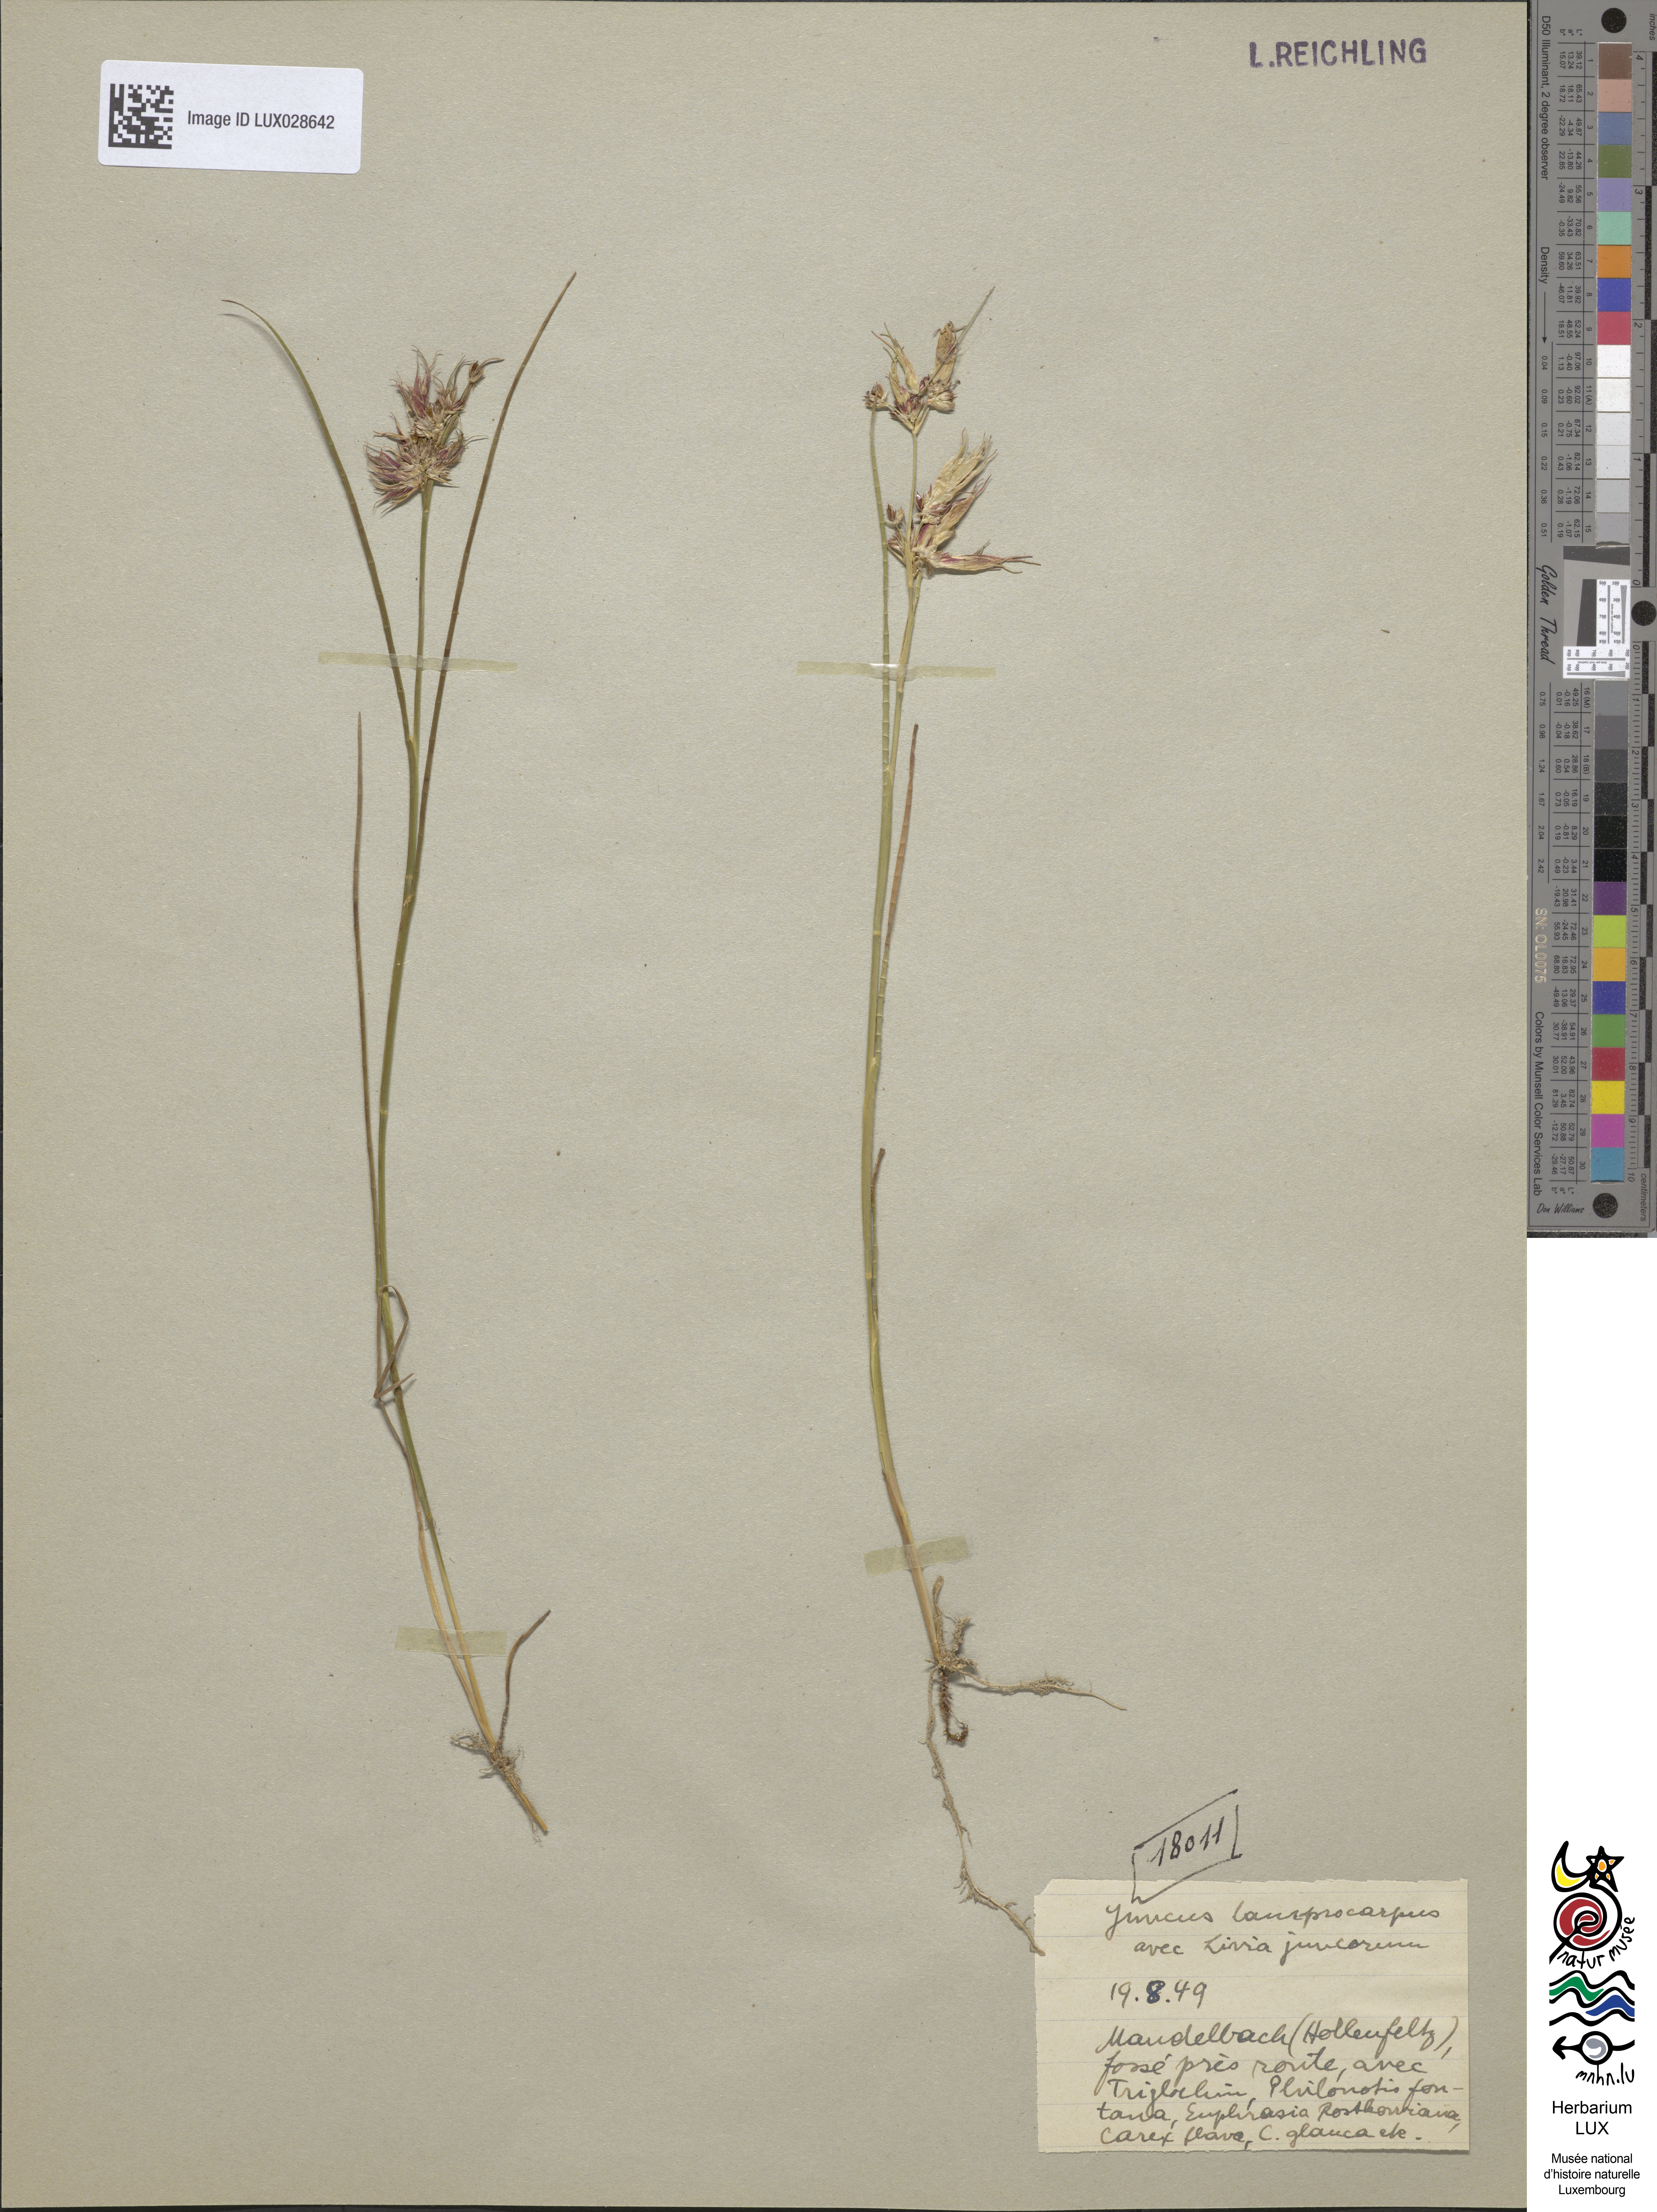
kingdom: Plantae
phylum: Tracheophyta
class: Liliopsida
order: Poales
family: Juncaceae
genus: Juncus
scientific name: Juncus articulatus
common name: Jointed rush
